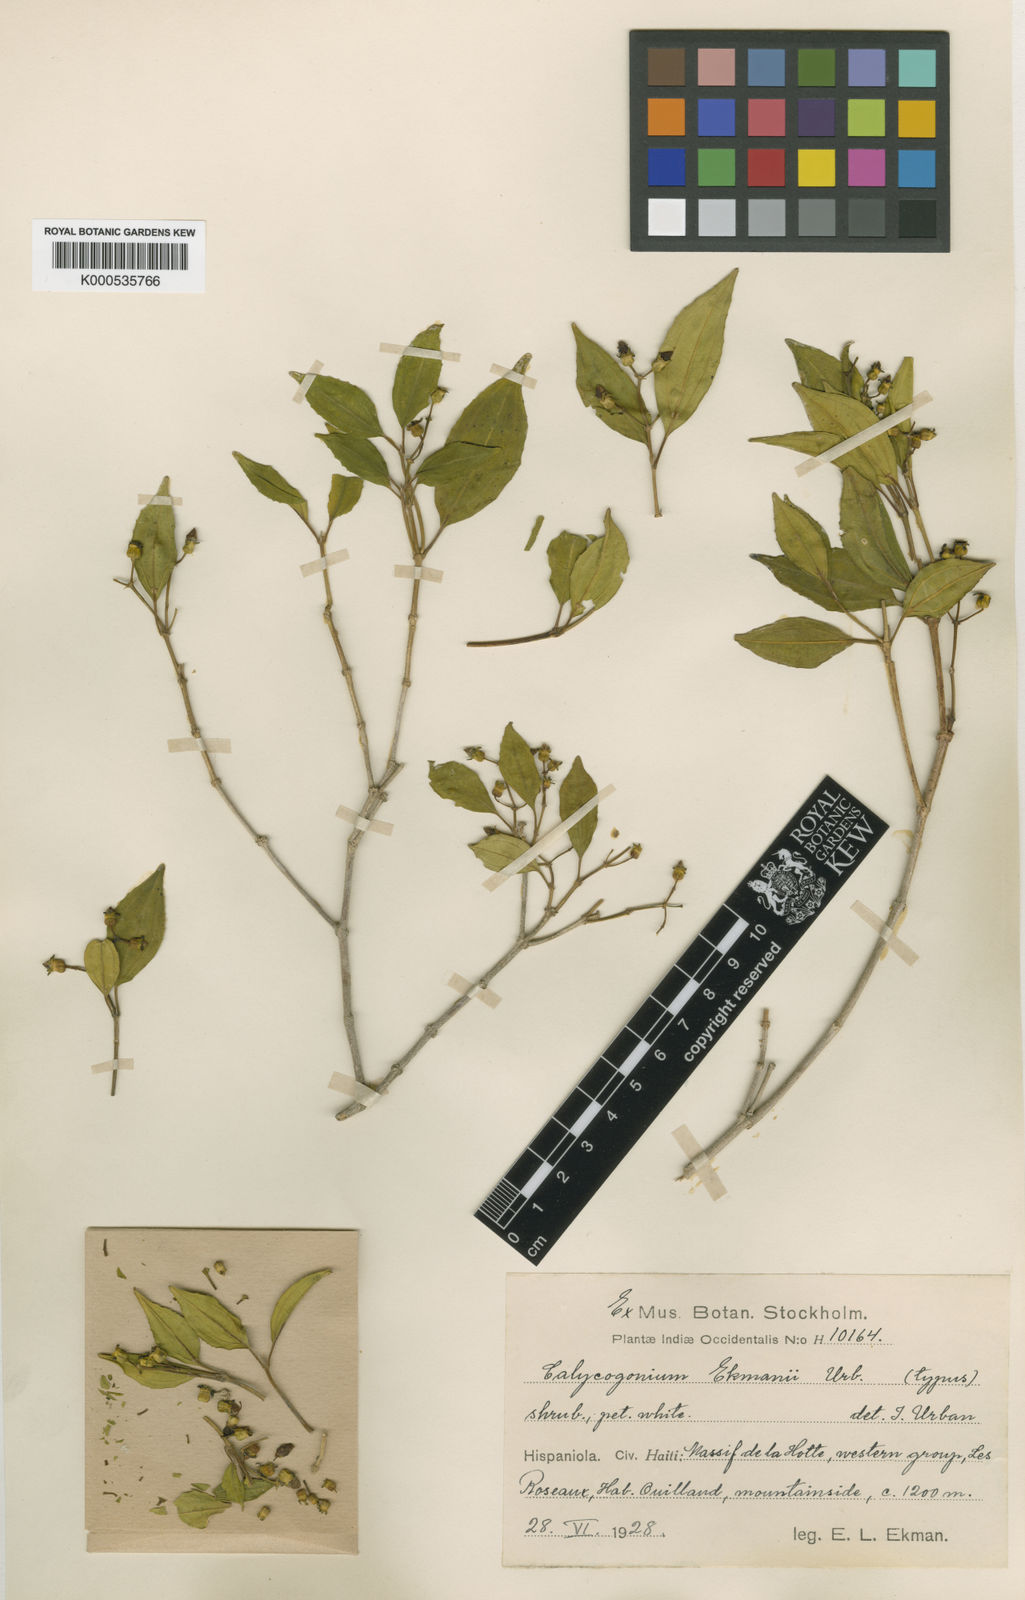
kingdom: Plantae
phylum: Tracheophyta
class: Magnoliopsida
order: Myrtales
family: Melastomataceae
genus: Miconia
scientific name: Miconia erikmaniana
